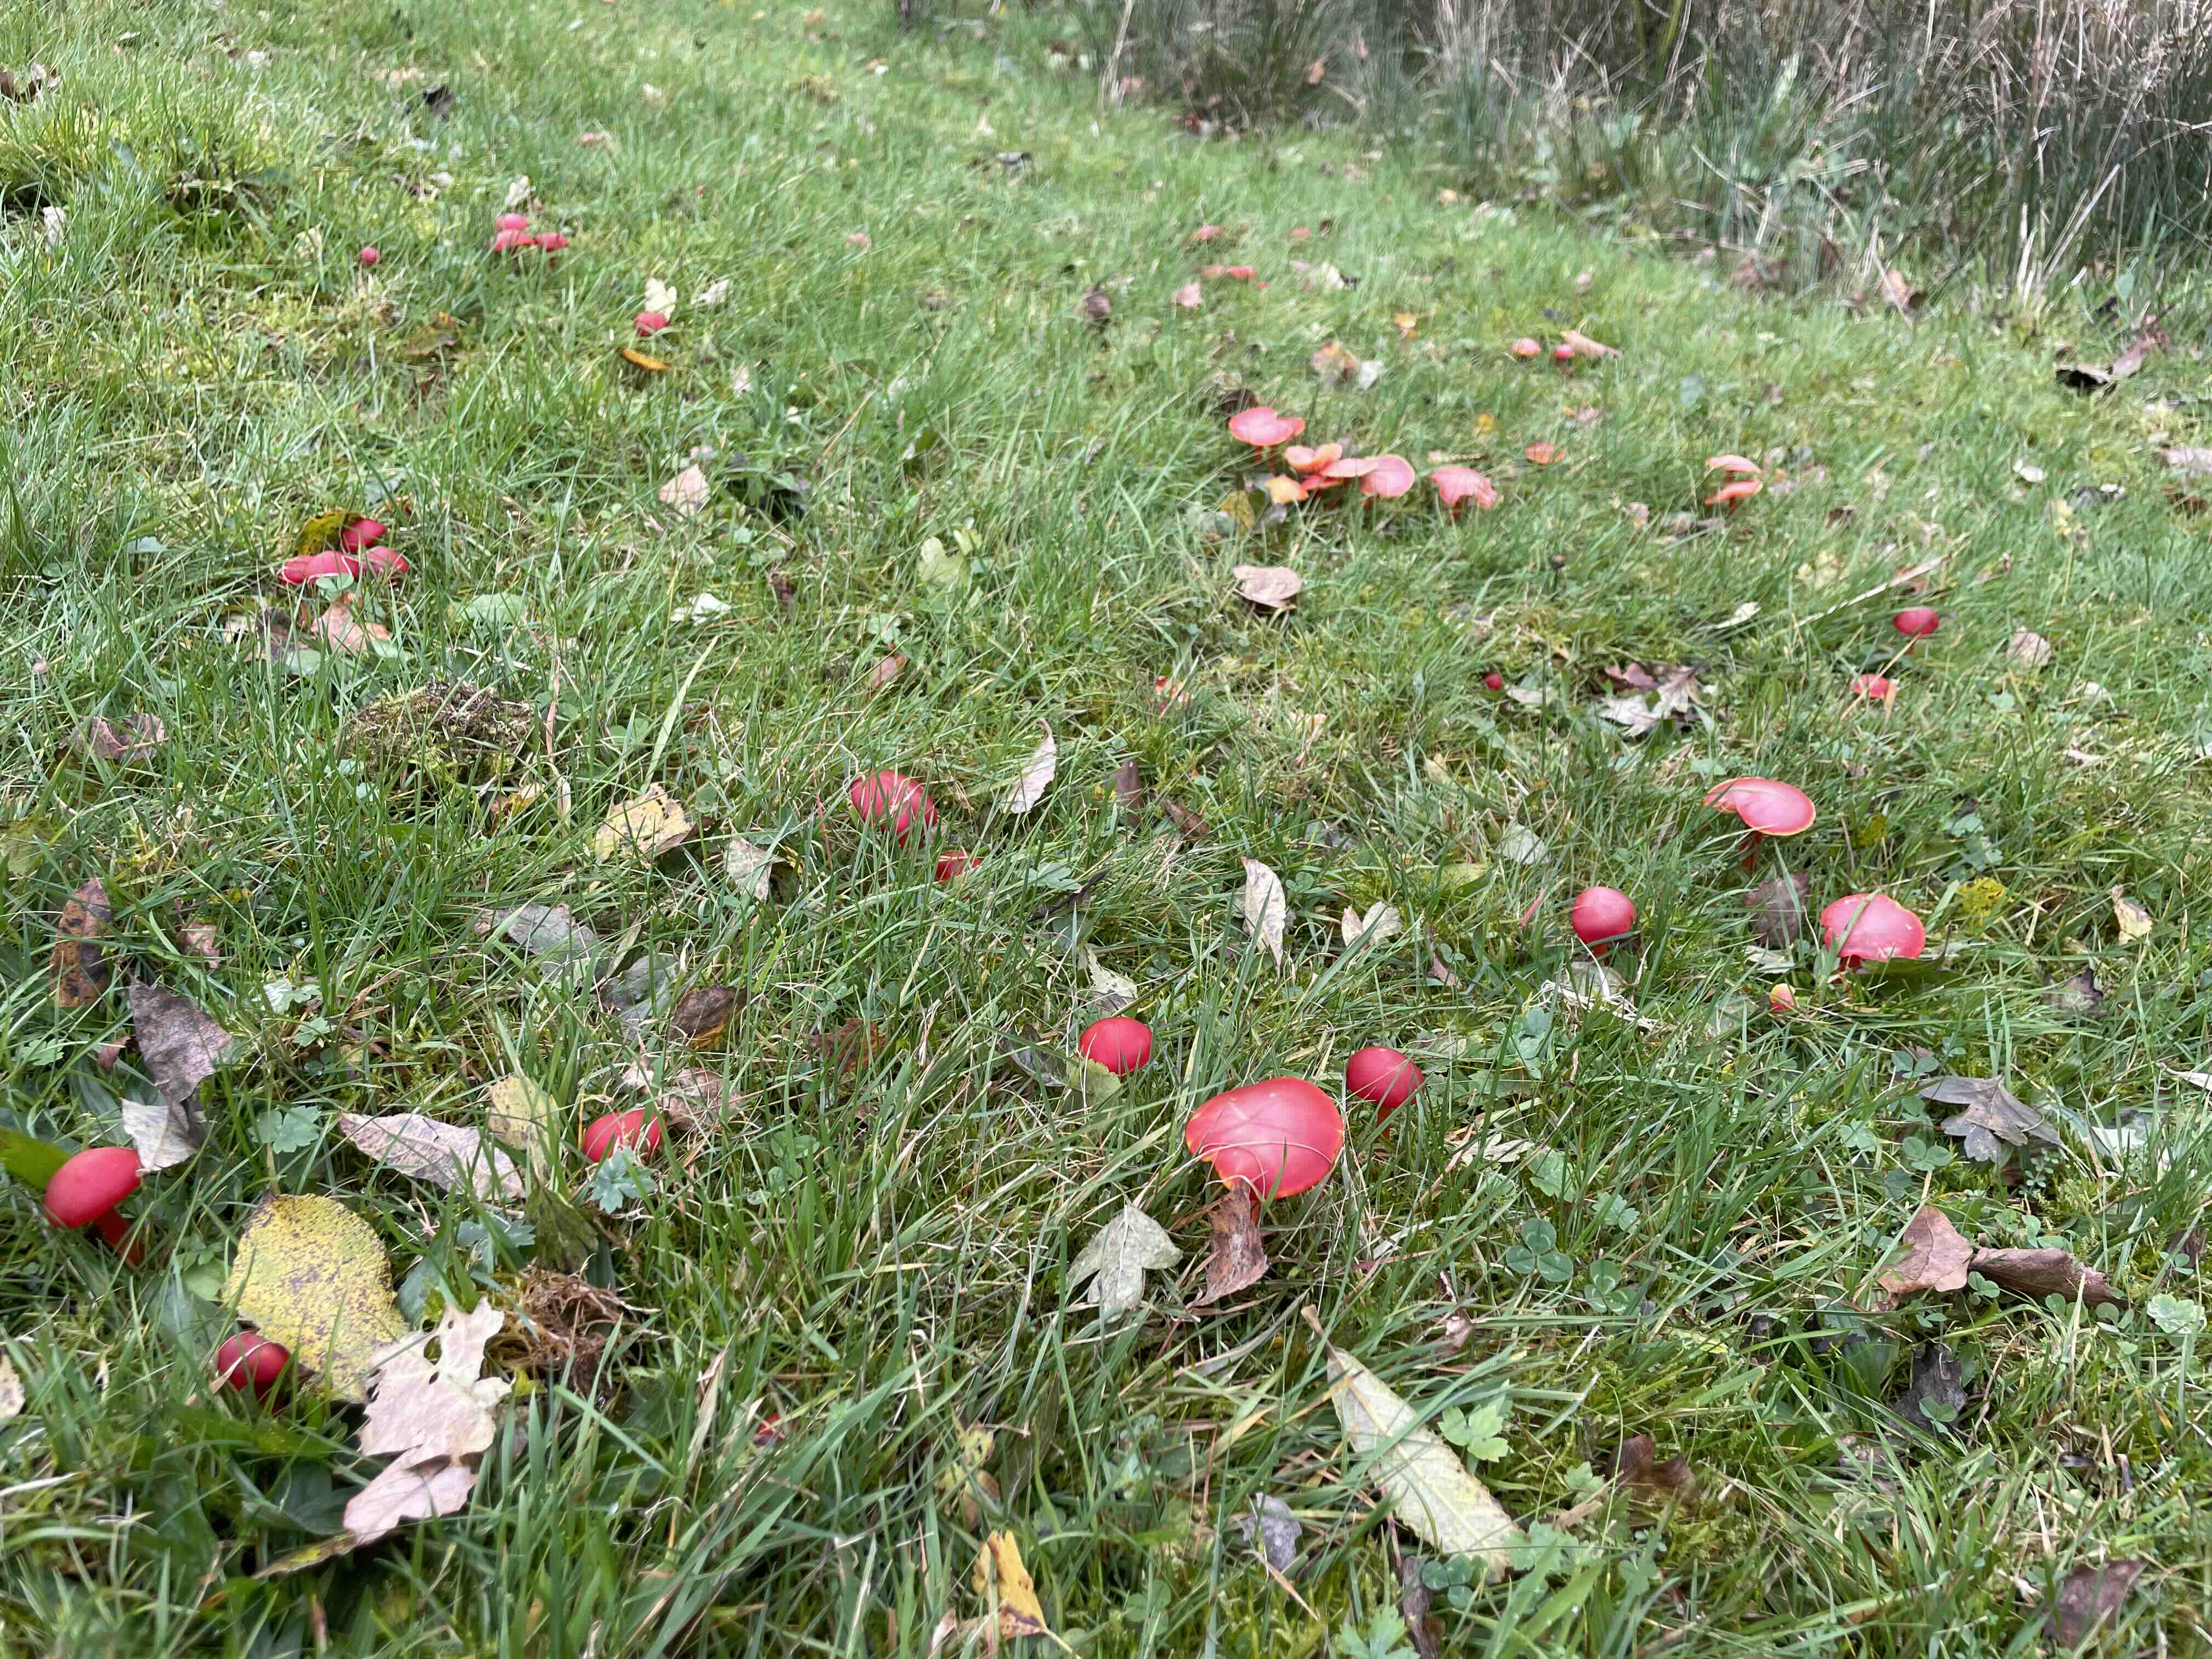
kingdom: Fungi
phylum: Basidiomycota
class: Agaricomycetes
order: Agaricales
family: Hygrophoraceae
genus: Hygrocybe
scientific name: Hygrocybe coccinea
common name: cinnober-vokshat
